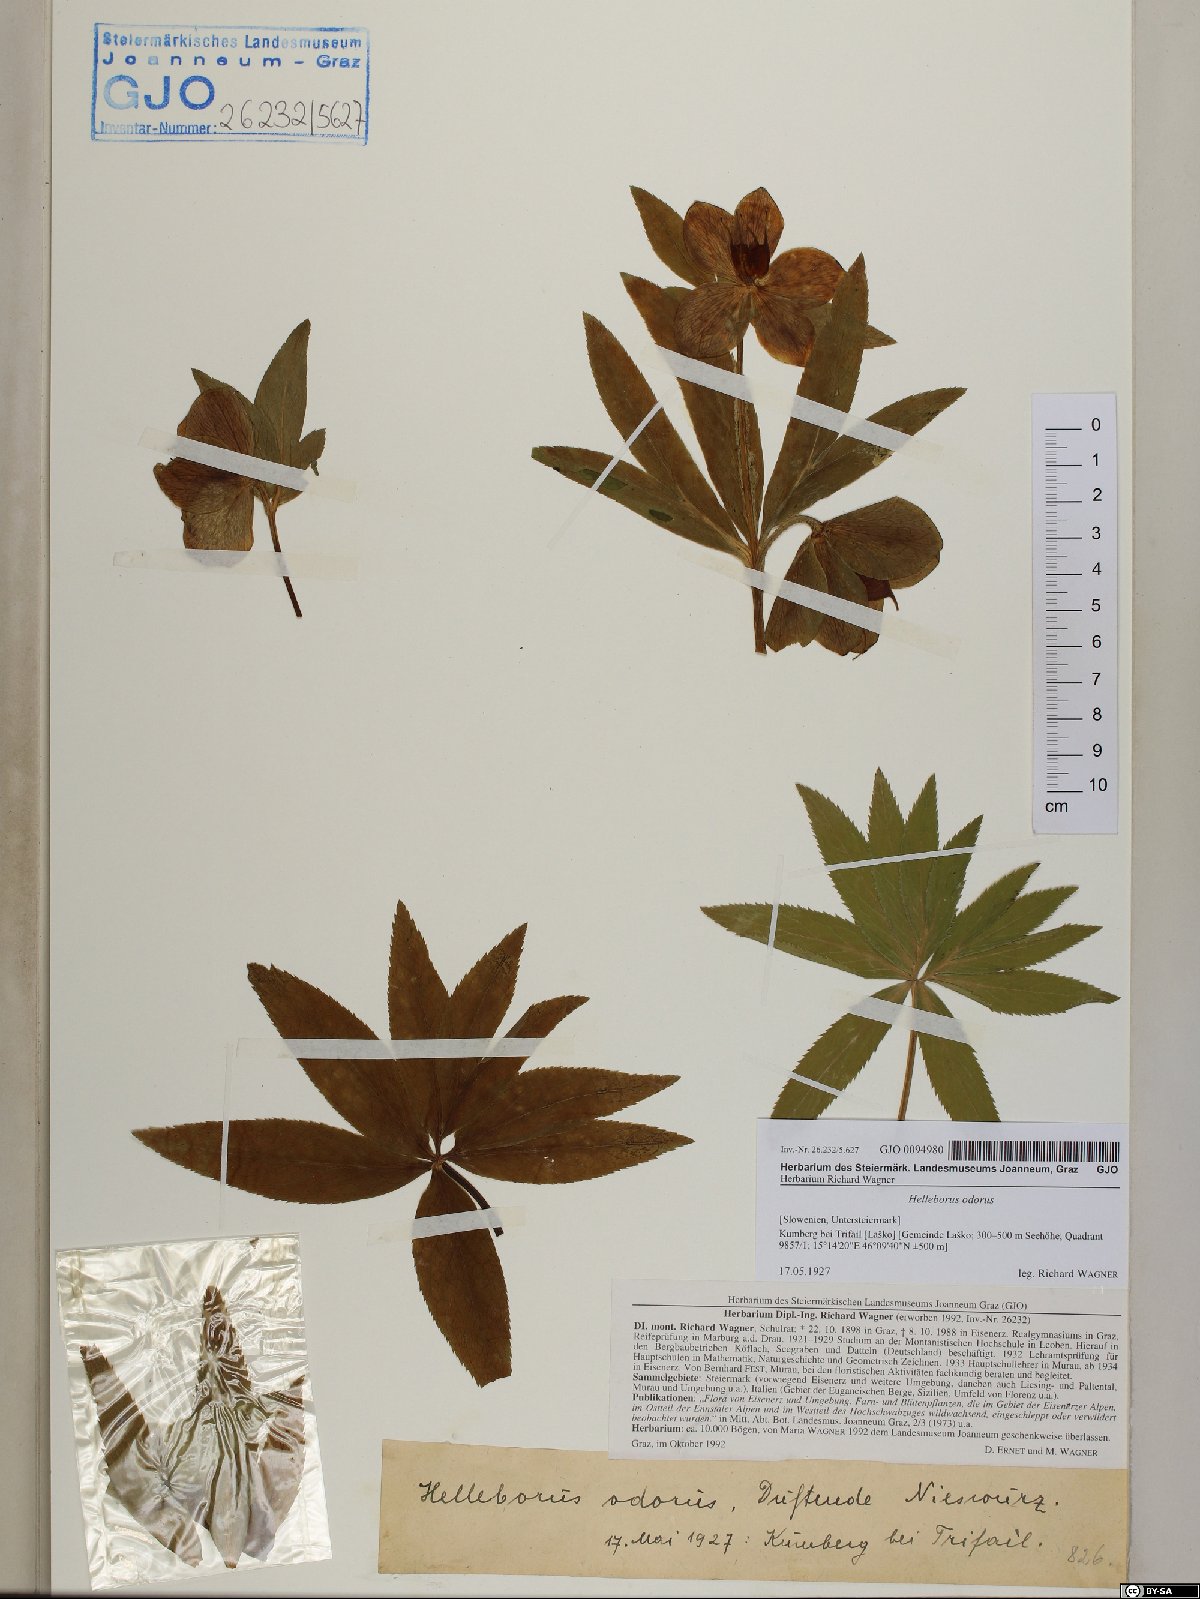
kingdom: Plantae
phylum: Tracheophyta
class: Magnoliopsida
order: Ranunculales
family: Ranunculaceae
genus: Helleborus
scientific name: Helleborus odorus
